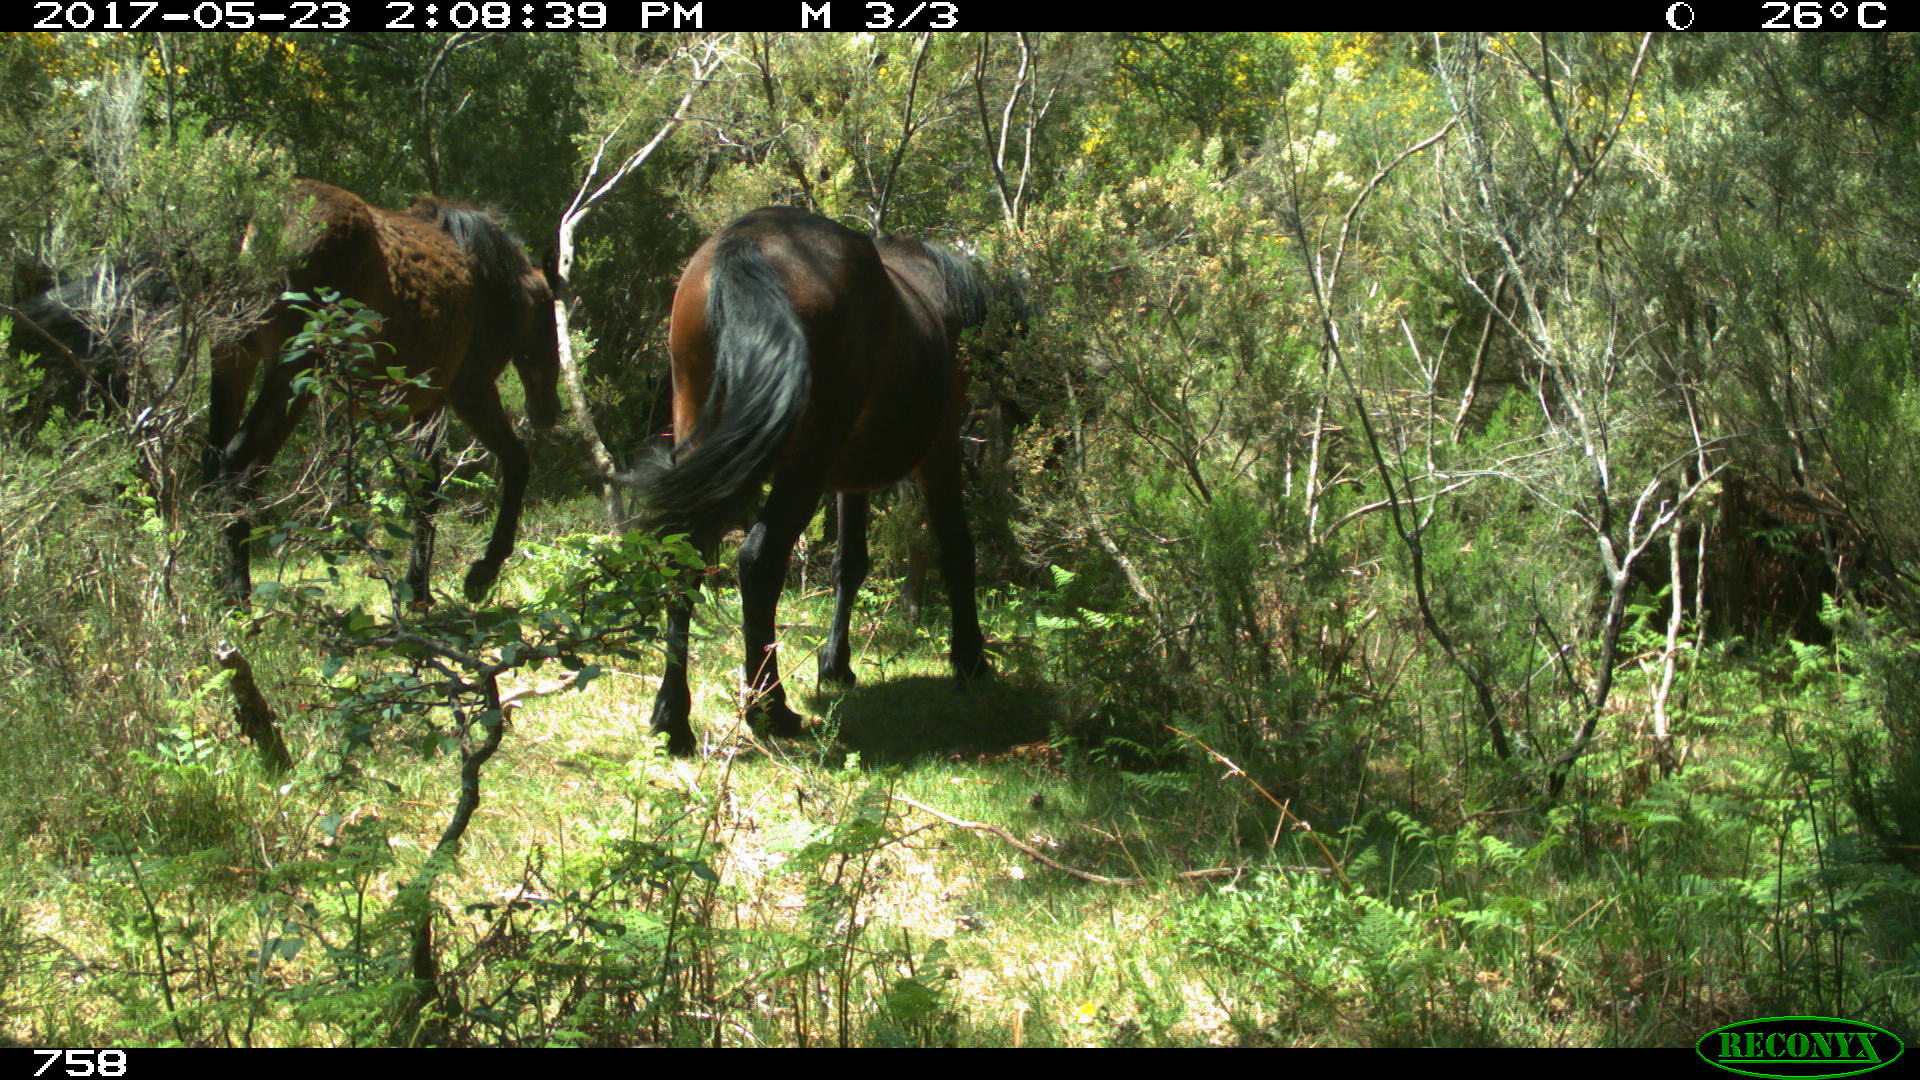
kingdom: Animalia
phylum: Chordata
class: Mammalia
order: Perissodactyla
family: Equidae
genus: Equus
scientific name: Equus caballus
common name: Horse
